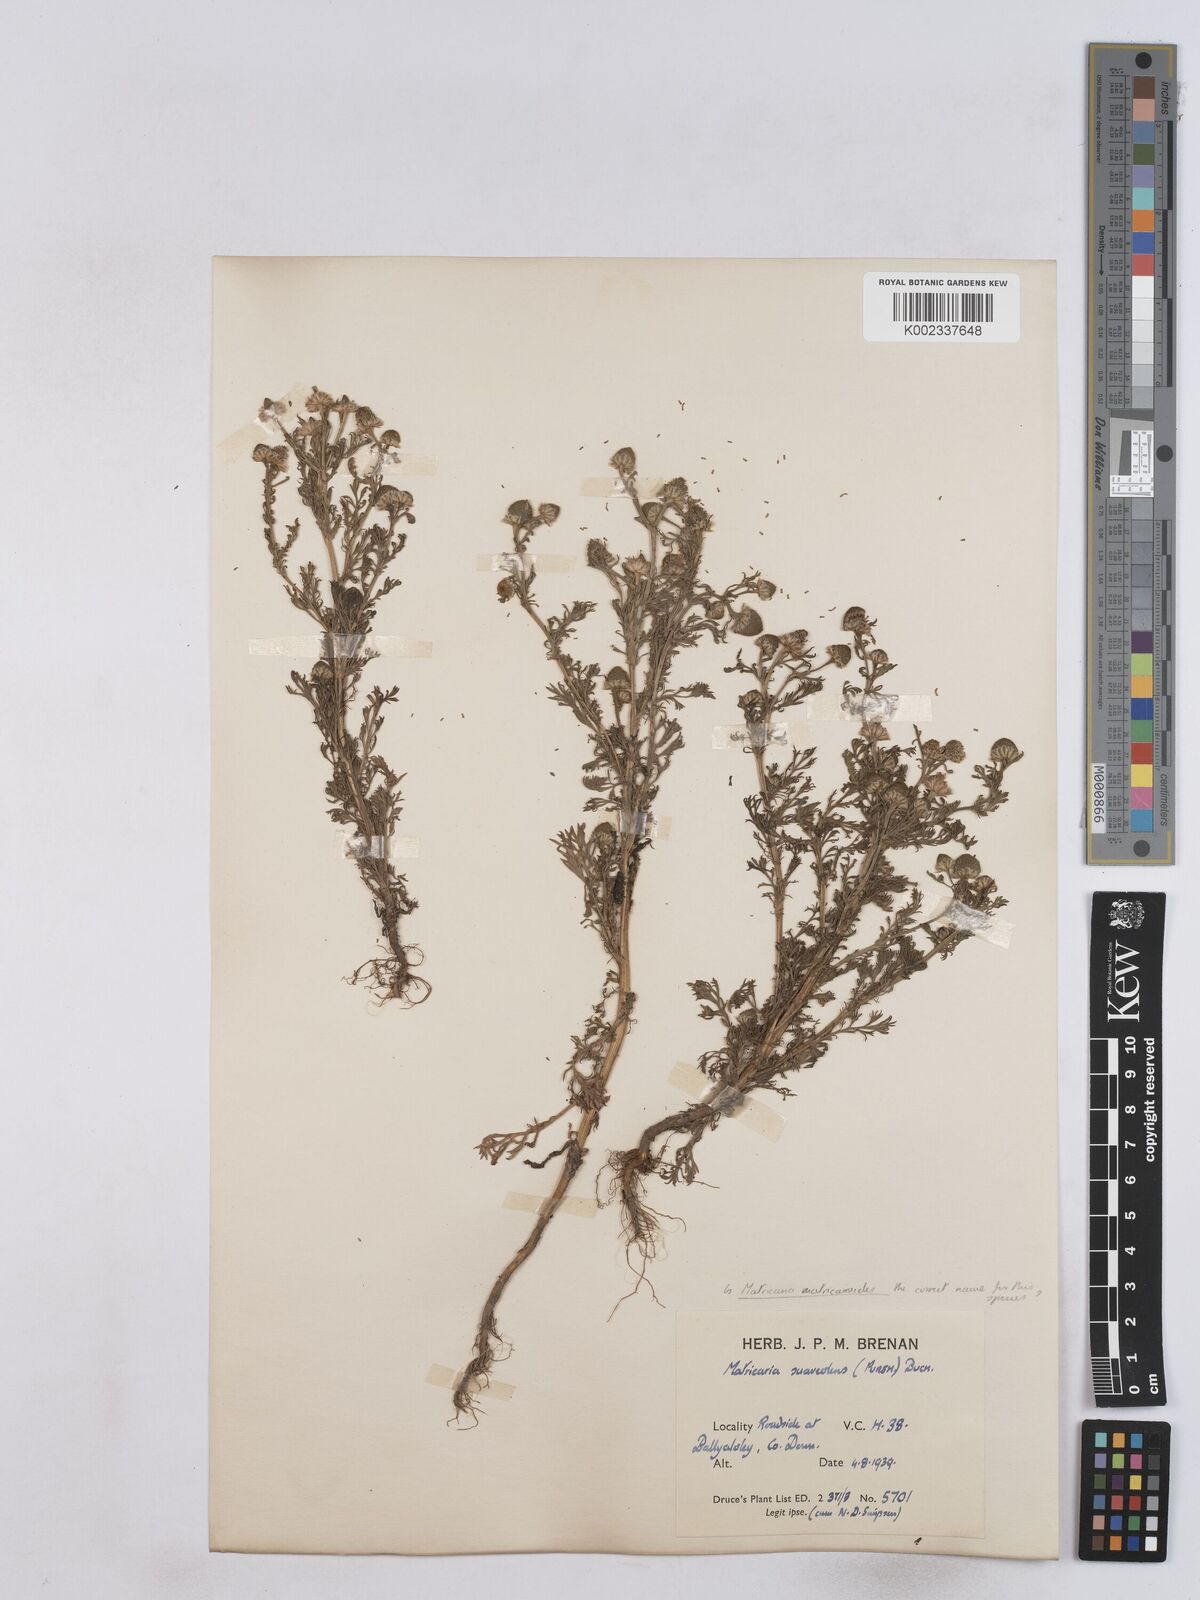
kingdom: Plantae
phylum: Tracheophyta
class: Magnoliopsida
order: Asterales
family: Asteraceae
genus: Matricaria
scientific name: Matricaria discoidea
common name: Disc mayweed
